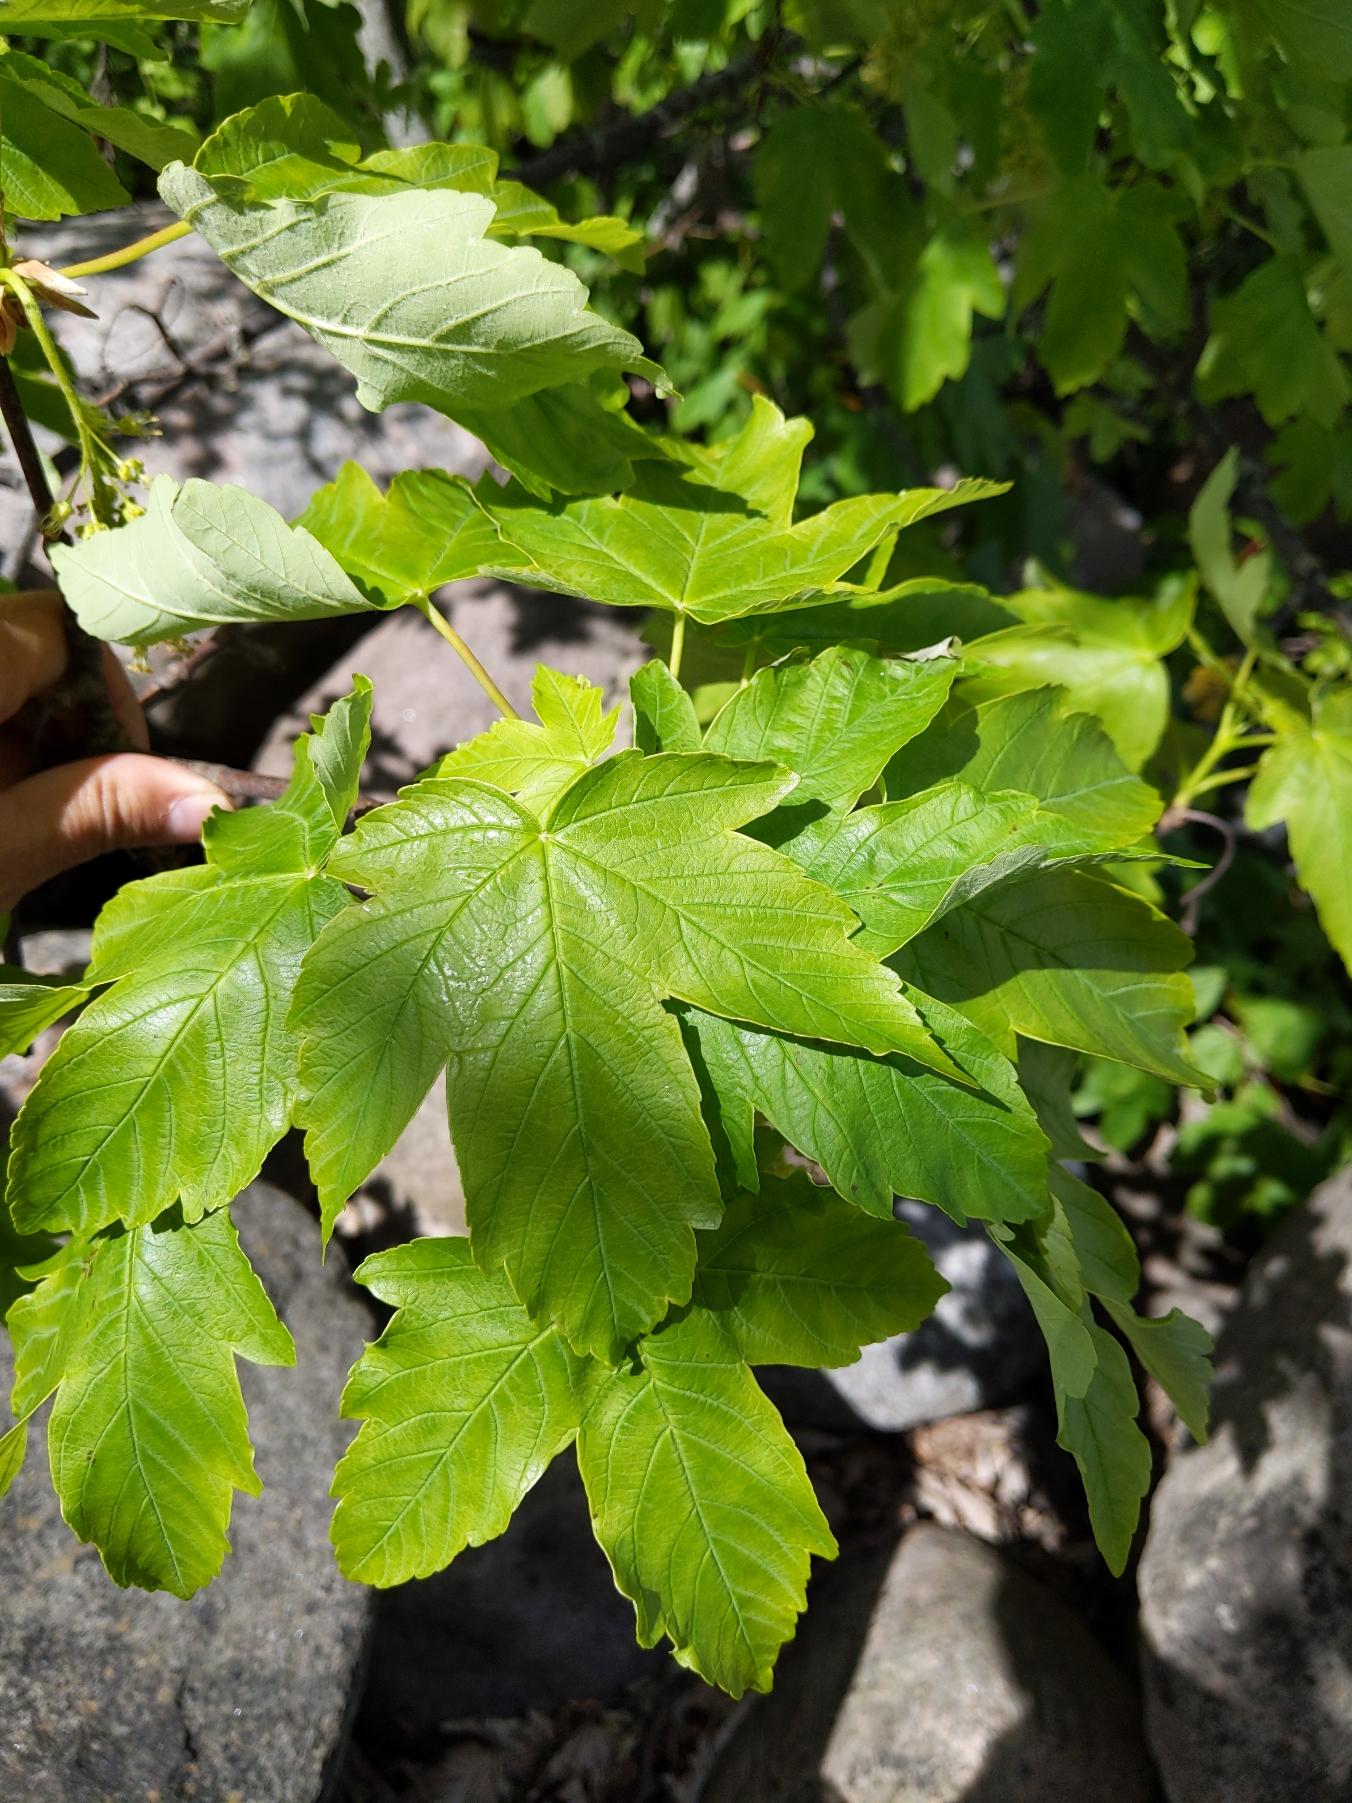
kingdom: Plantae
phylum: Tracheophyta
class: Magnoliopsida
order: Sapindales
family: Sapindaceae
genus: Acer
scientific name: Acer pseudoplatanus
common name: Ahorn
